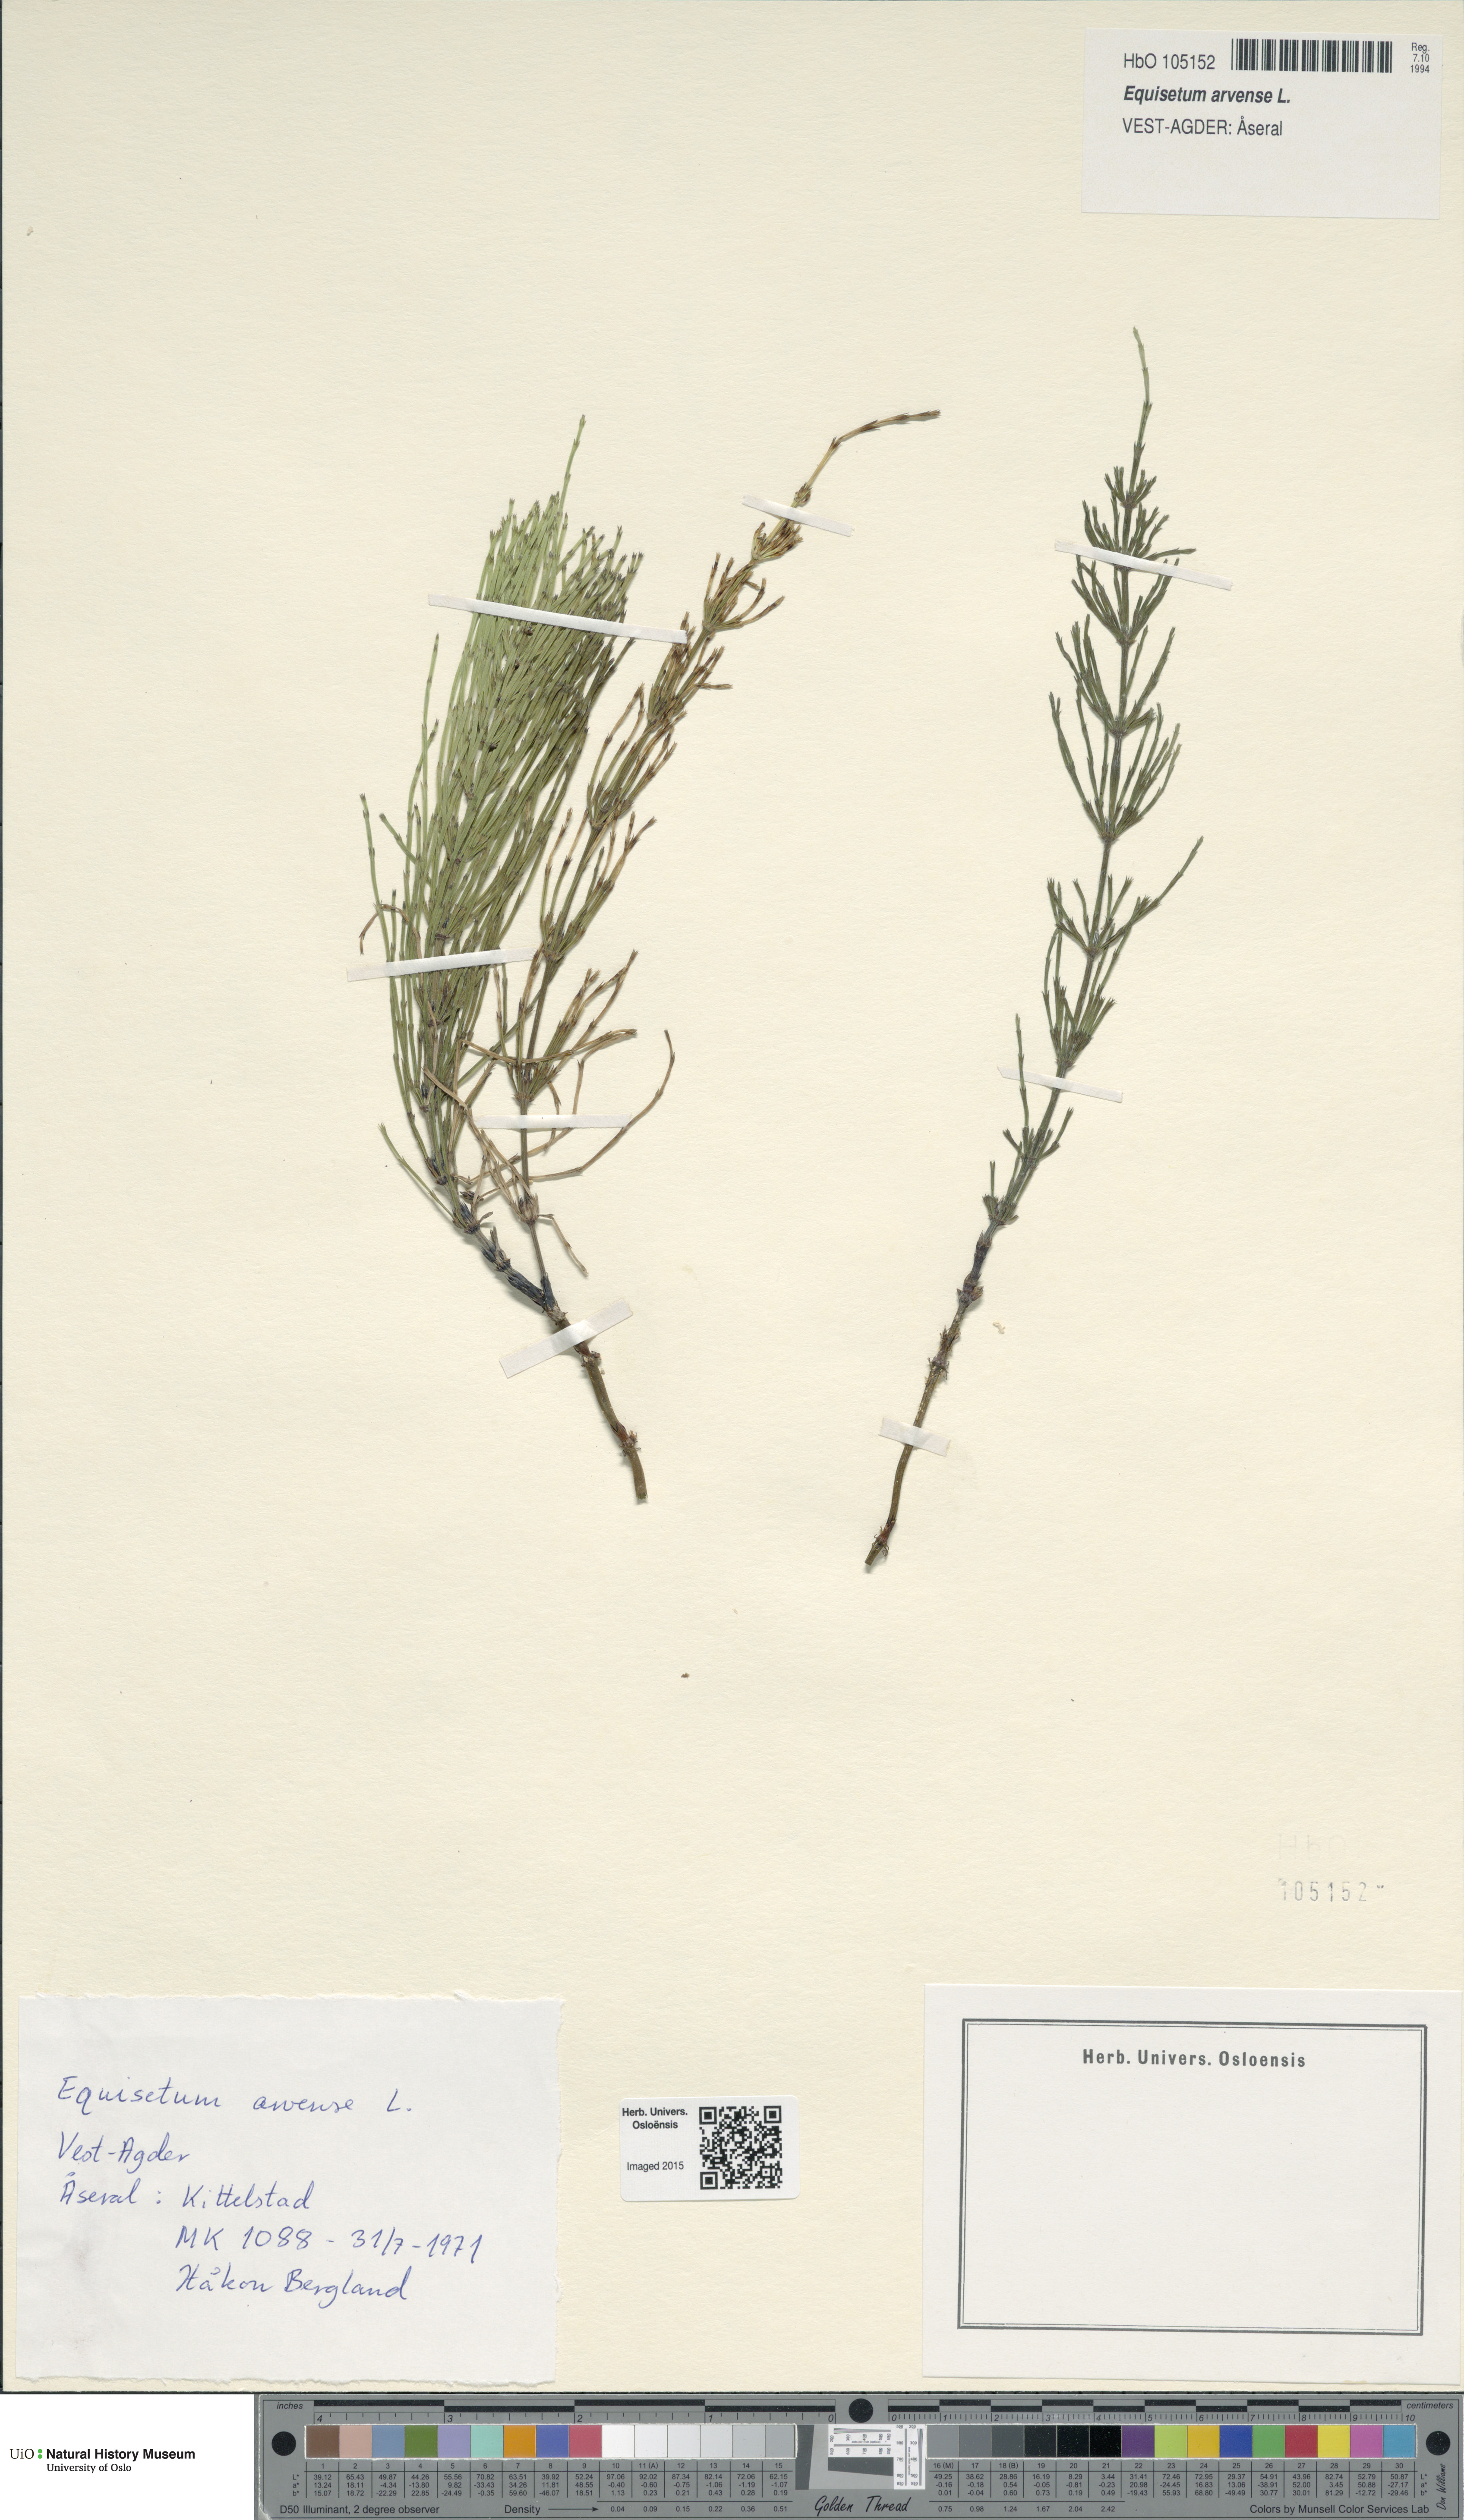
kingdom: Plantae
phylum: Tracheophyta
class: Polypodiopsida
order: Equisetales
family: Equisetaceae
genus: Equisetum
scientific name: Equisetum arvense
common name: Field horsetail
